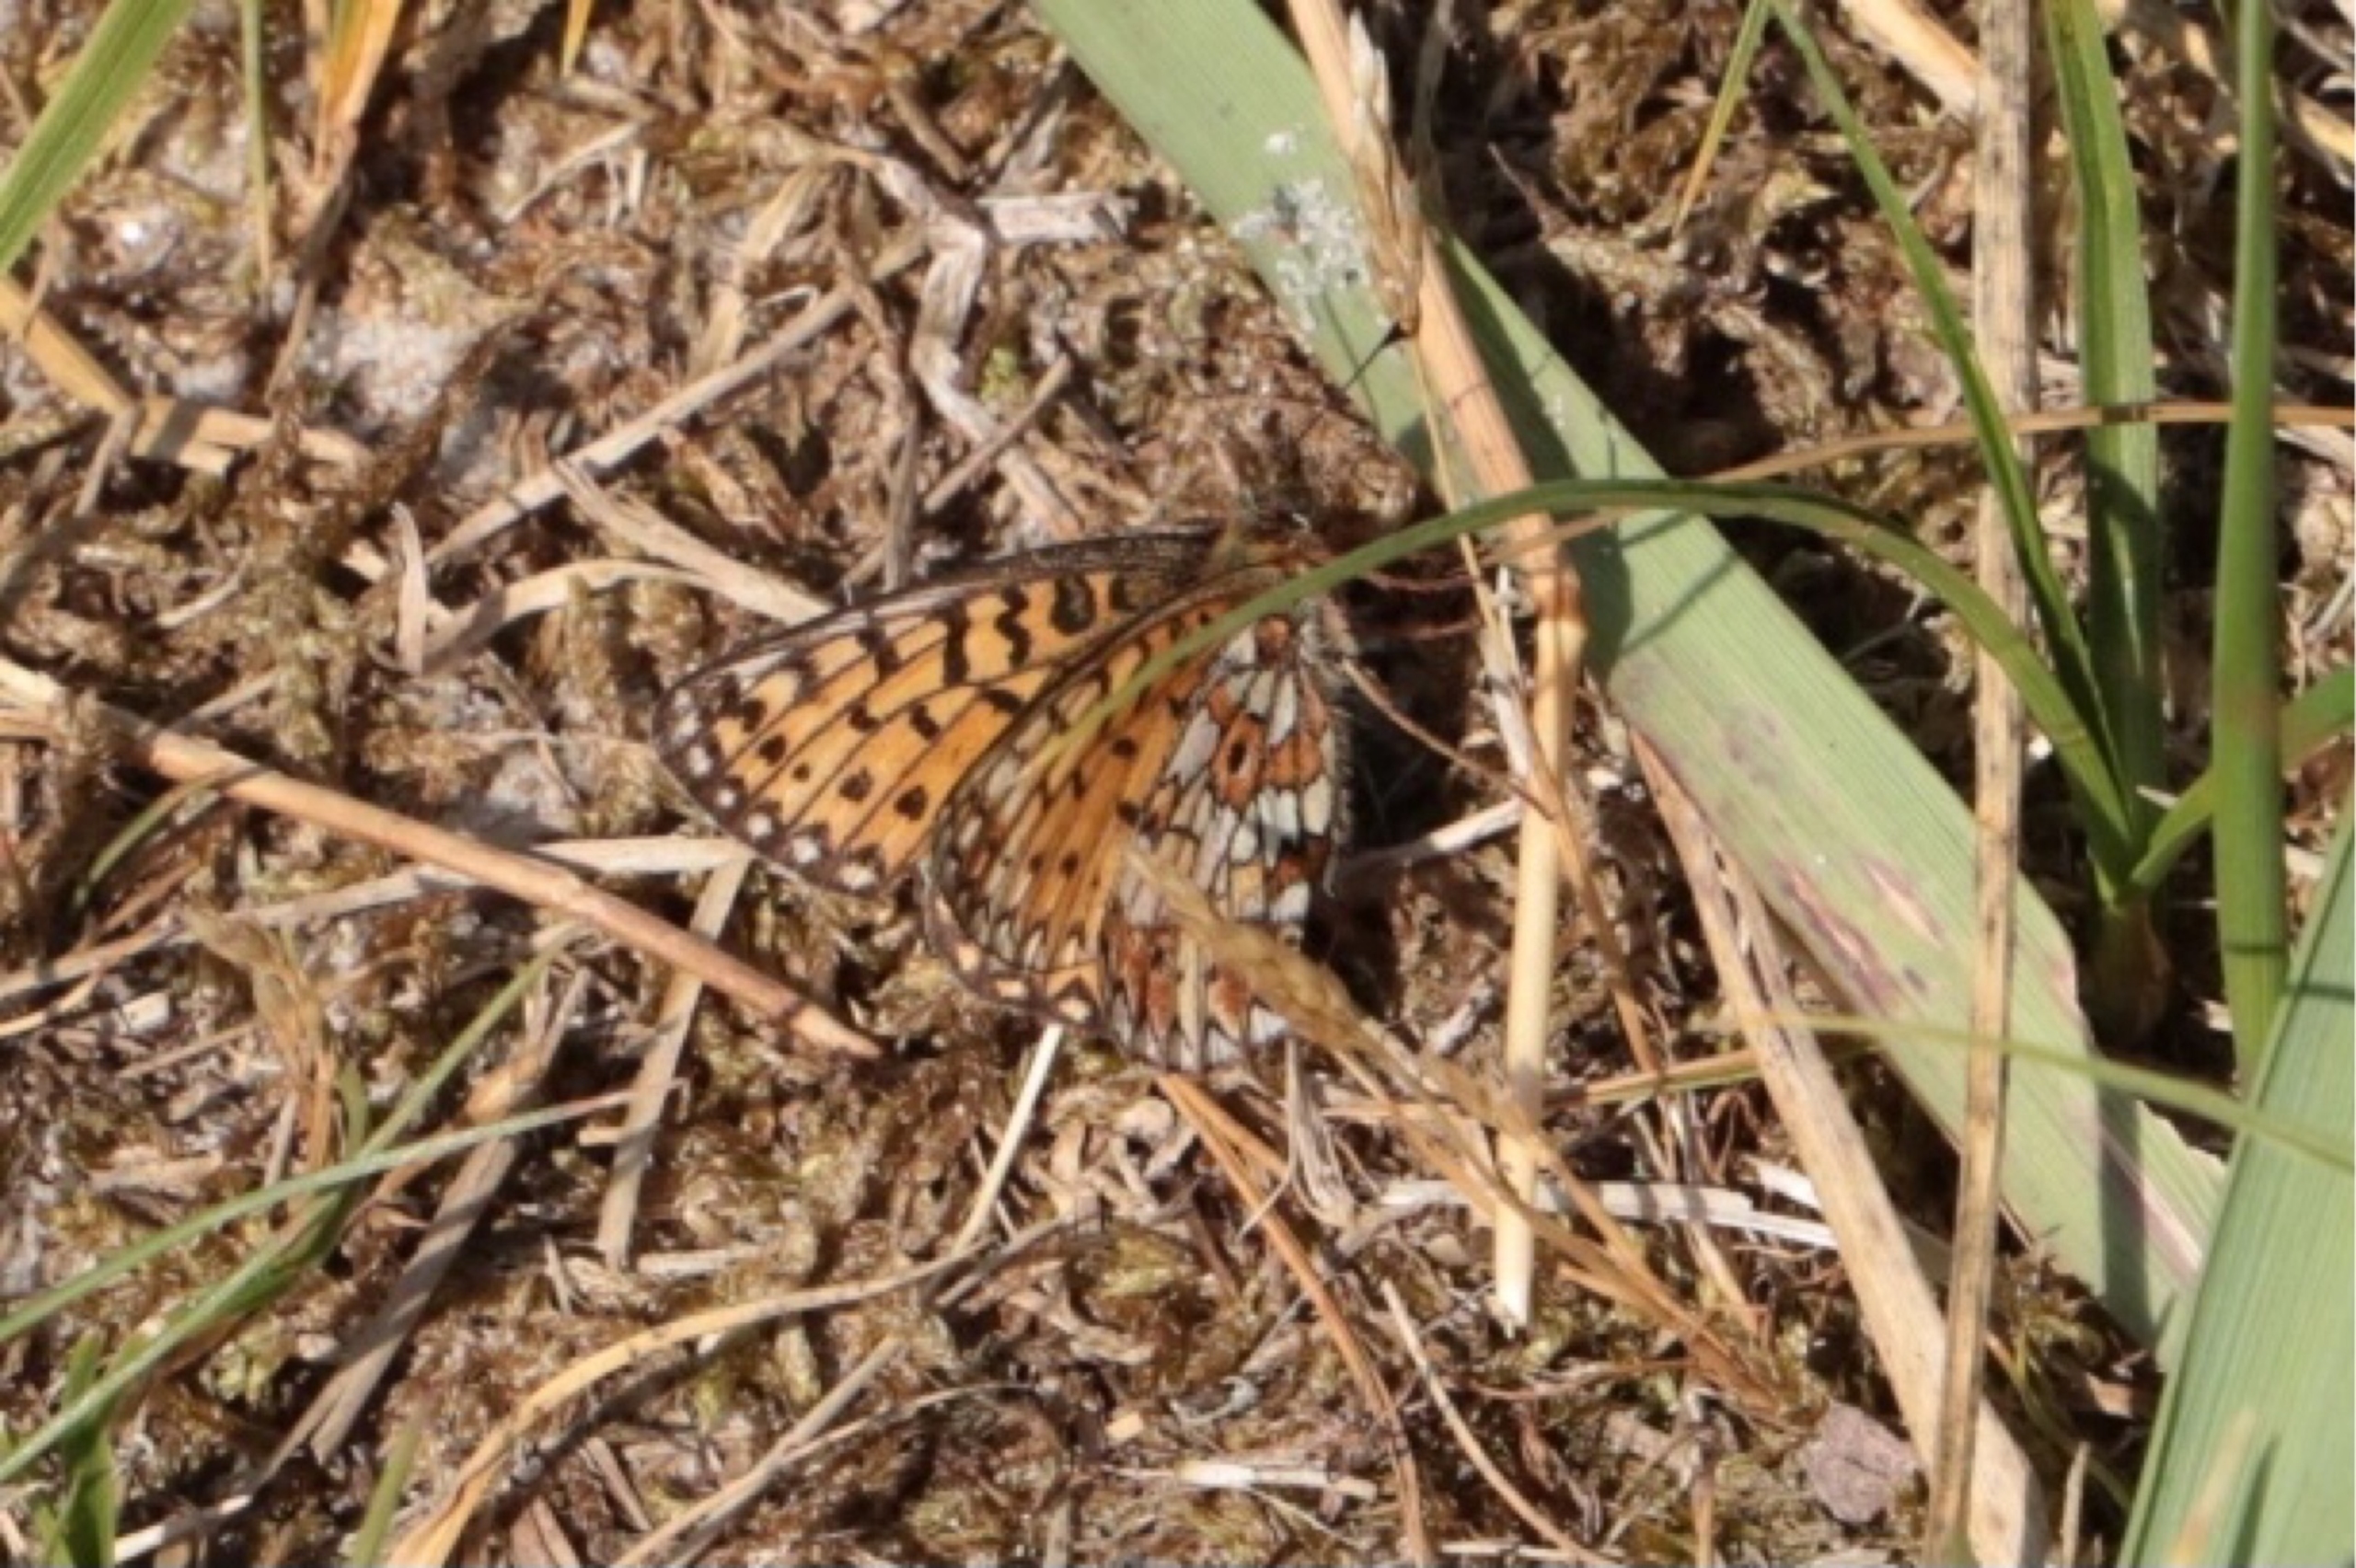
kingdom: Animalia
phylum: Arthropoda
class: Insecta
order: Lepidoptera
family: Nymphalidae
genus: Boloria
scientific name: Boloria selene
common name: Brunlig perlemorsommerfugl
